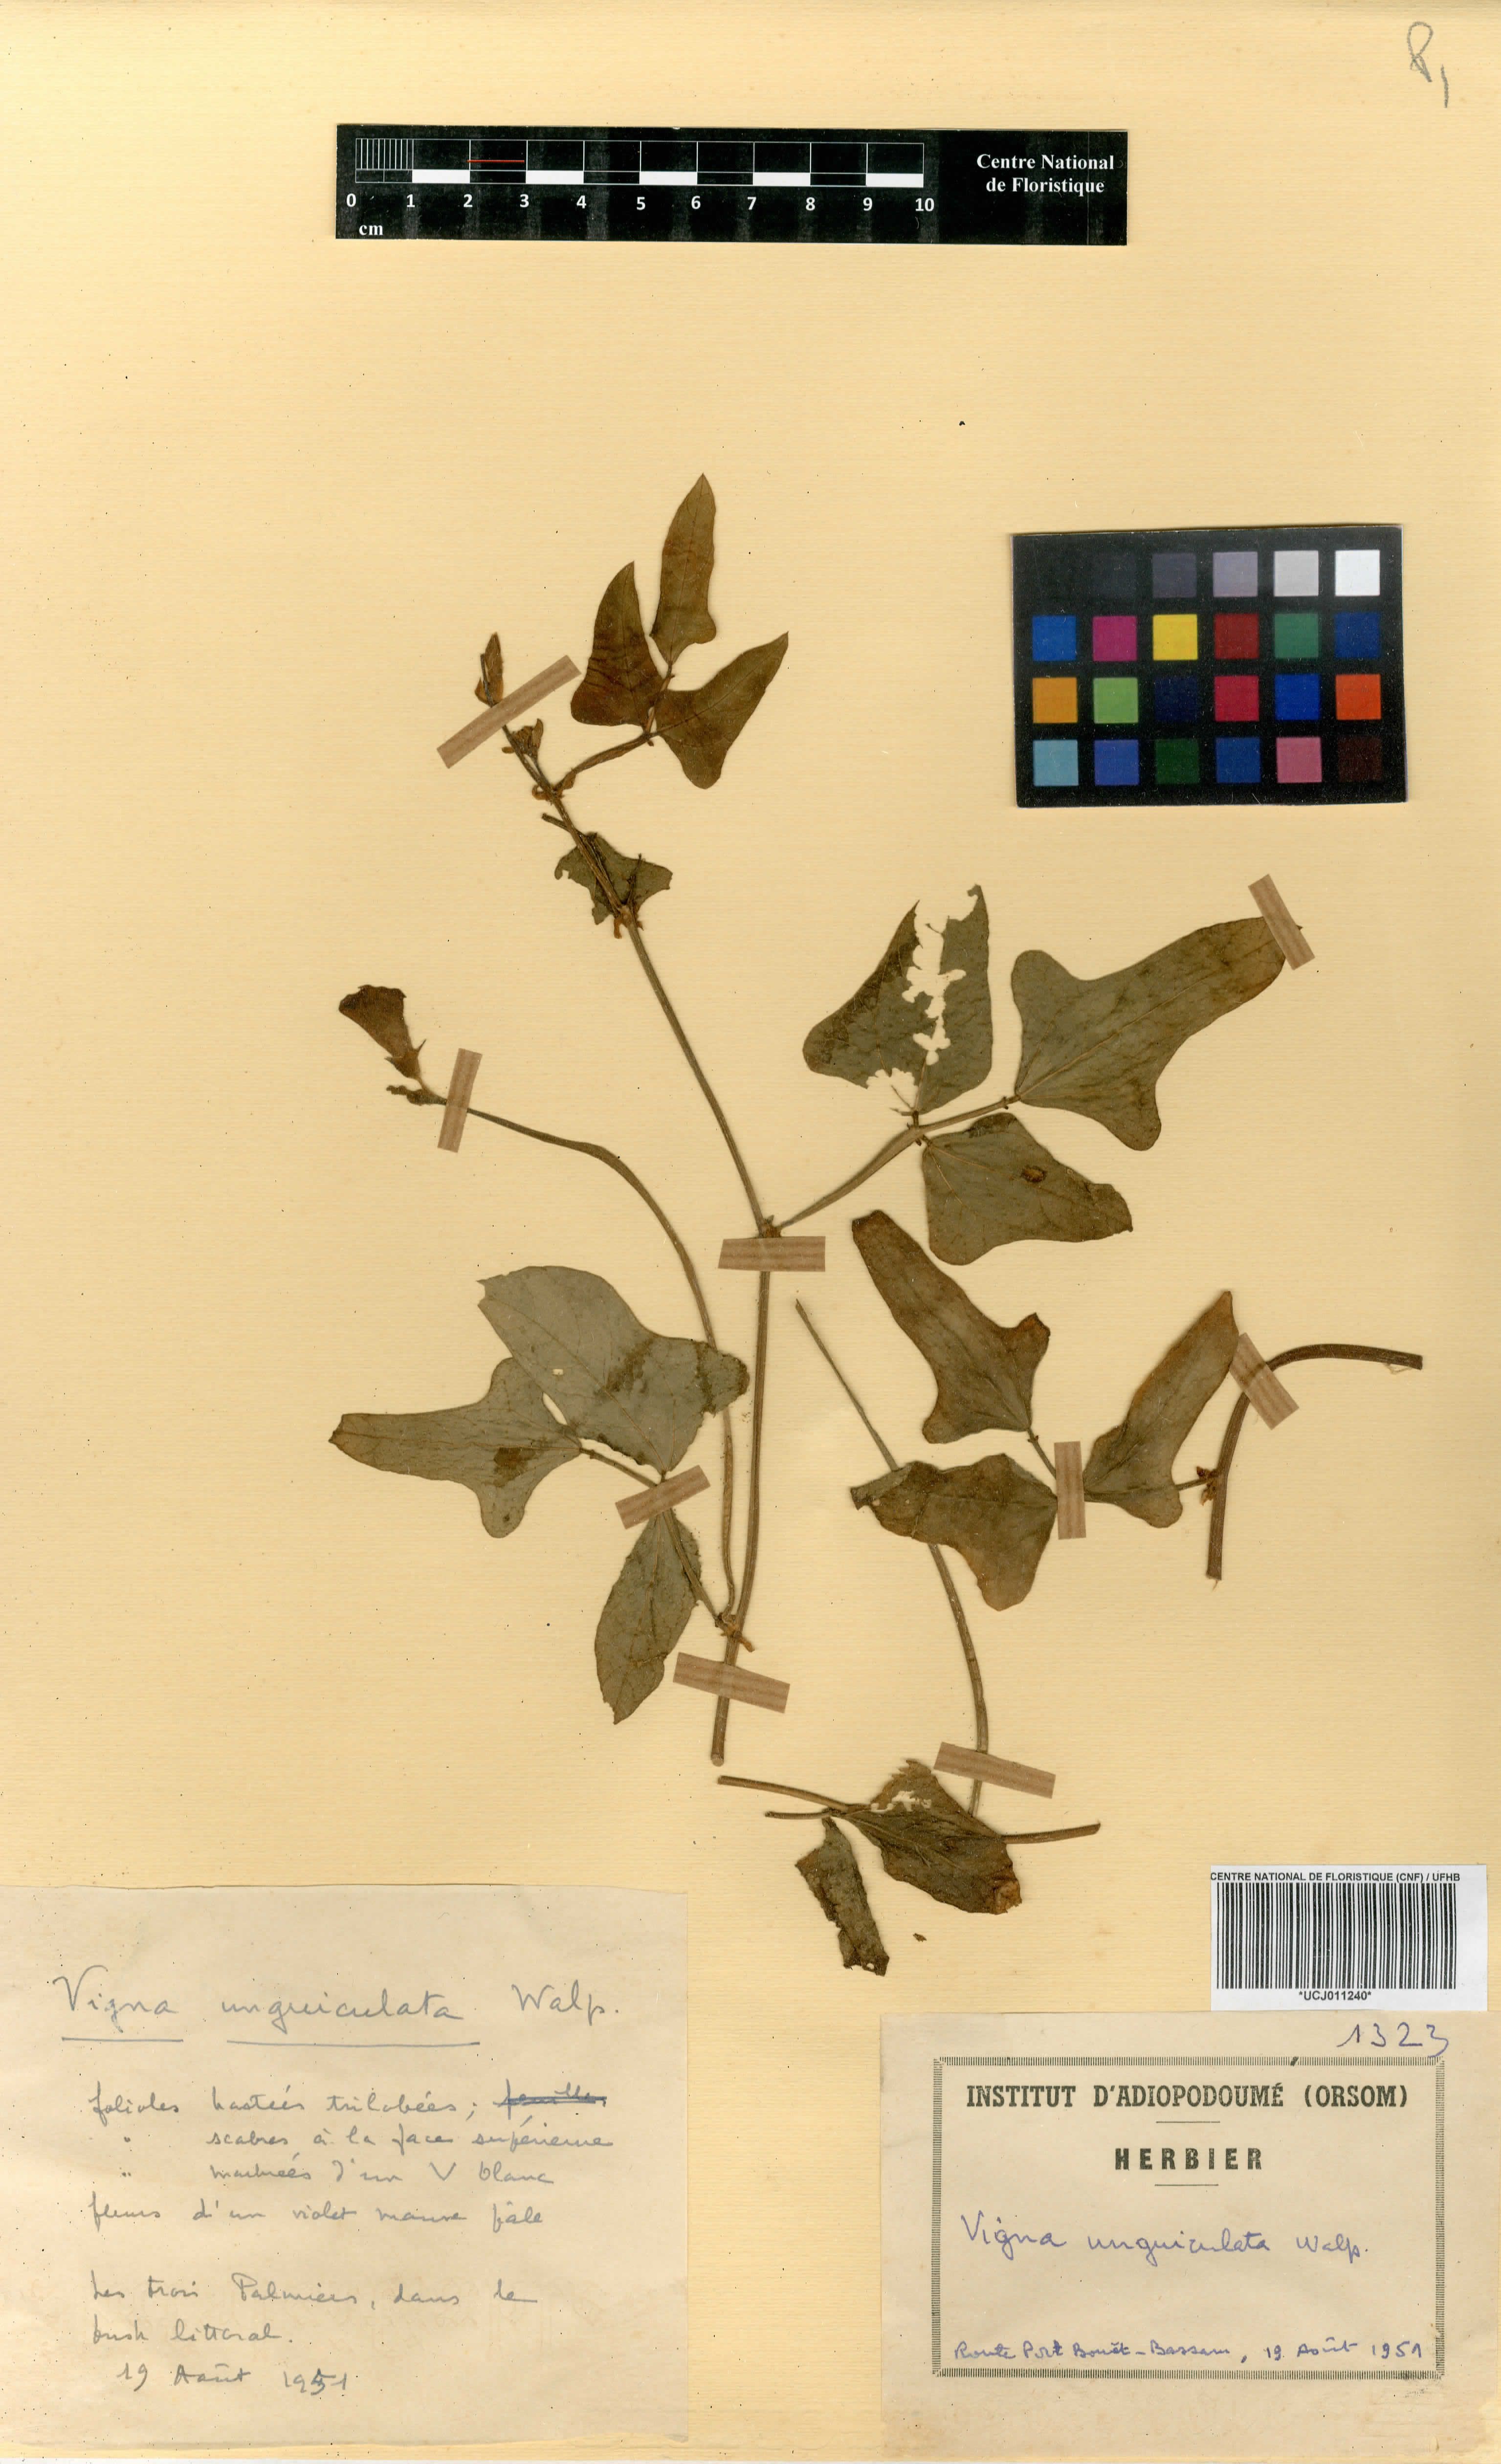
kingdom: Plantae
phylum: Tracheophyta
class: Magnoliopsida
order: Fabales
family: Fabaceae
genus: Vigna
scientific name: Vigna unguiculata
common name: Cowpea
